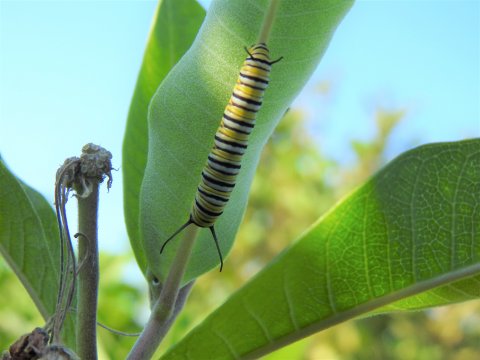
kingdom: Animalia
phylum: Arthropoda
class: Insecta
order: Lepidoptera
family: Nymphalidae
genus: Danaus
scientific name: Danaus plexippus
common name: Monarch
